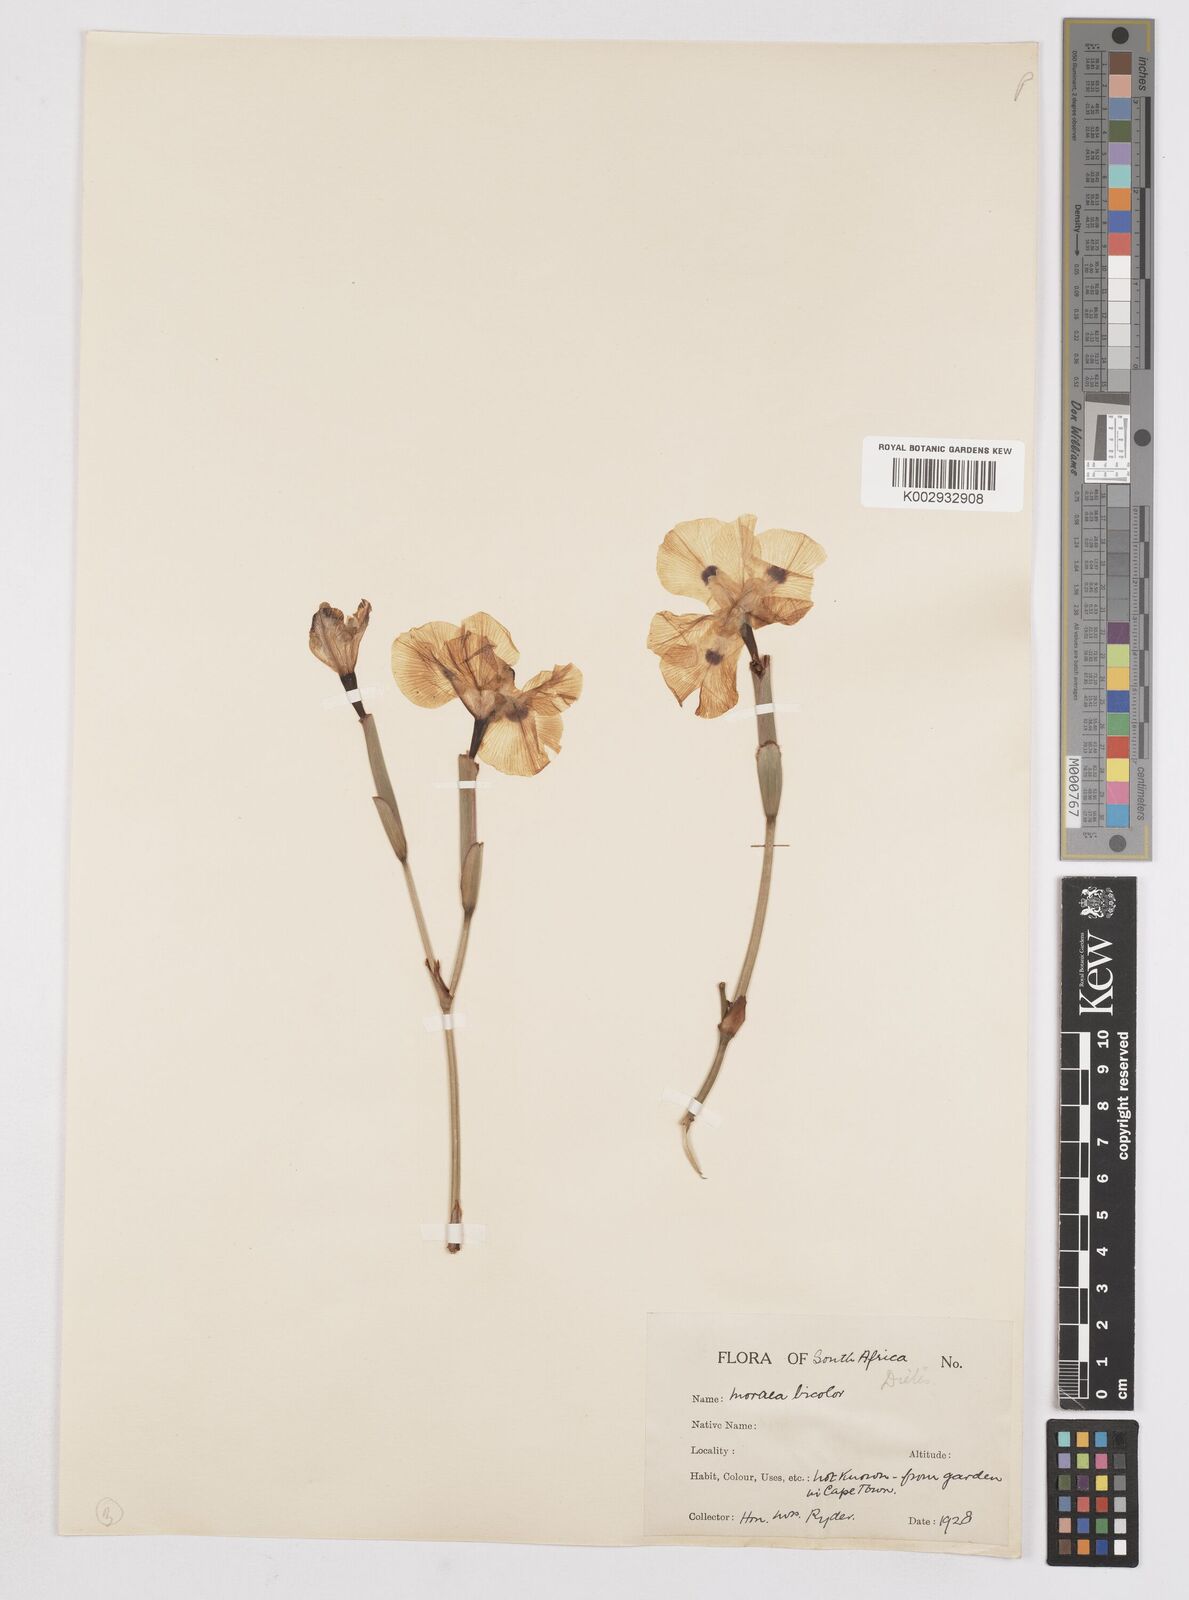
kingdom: Plantae
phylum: Tracheophyta
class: Liliopsida
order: Asparagales
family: Iridaceae
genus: Dietes
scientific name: Dietes bicolor
